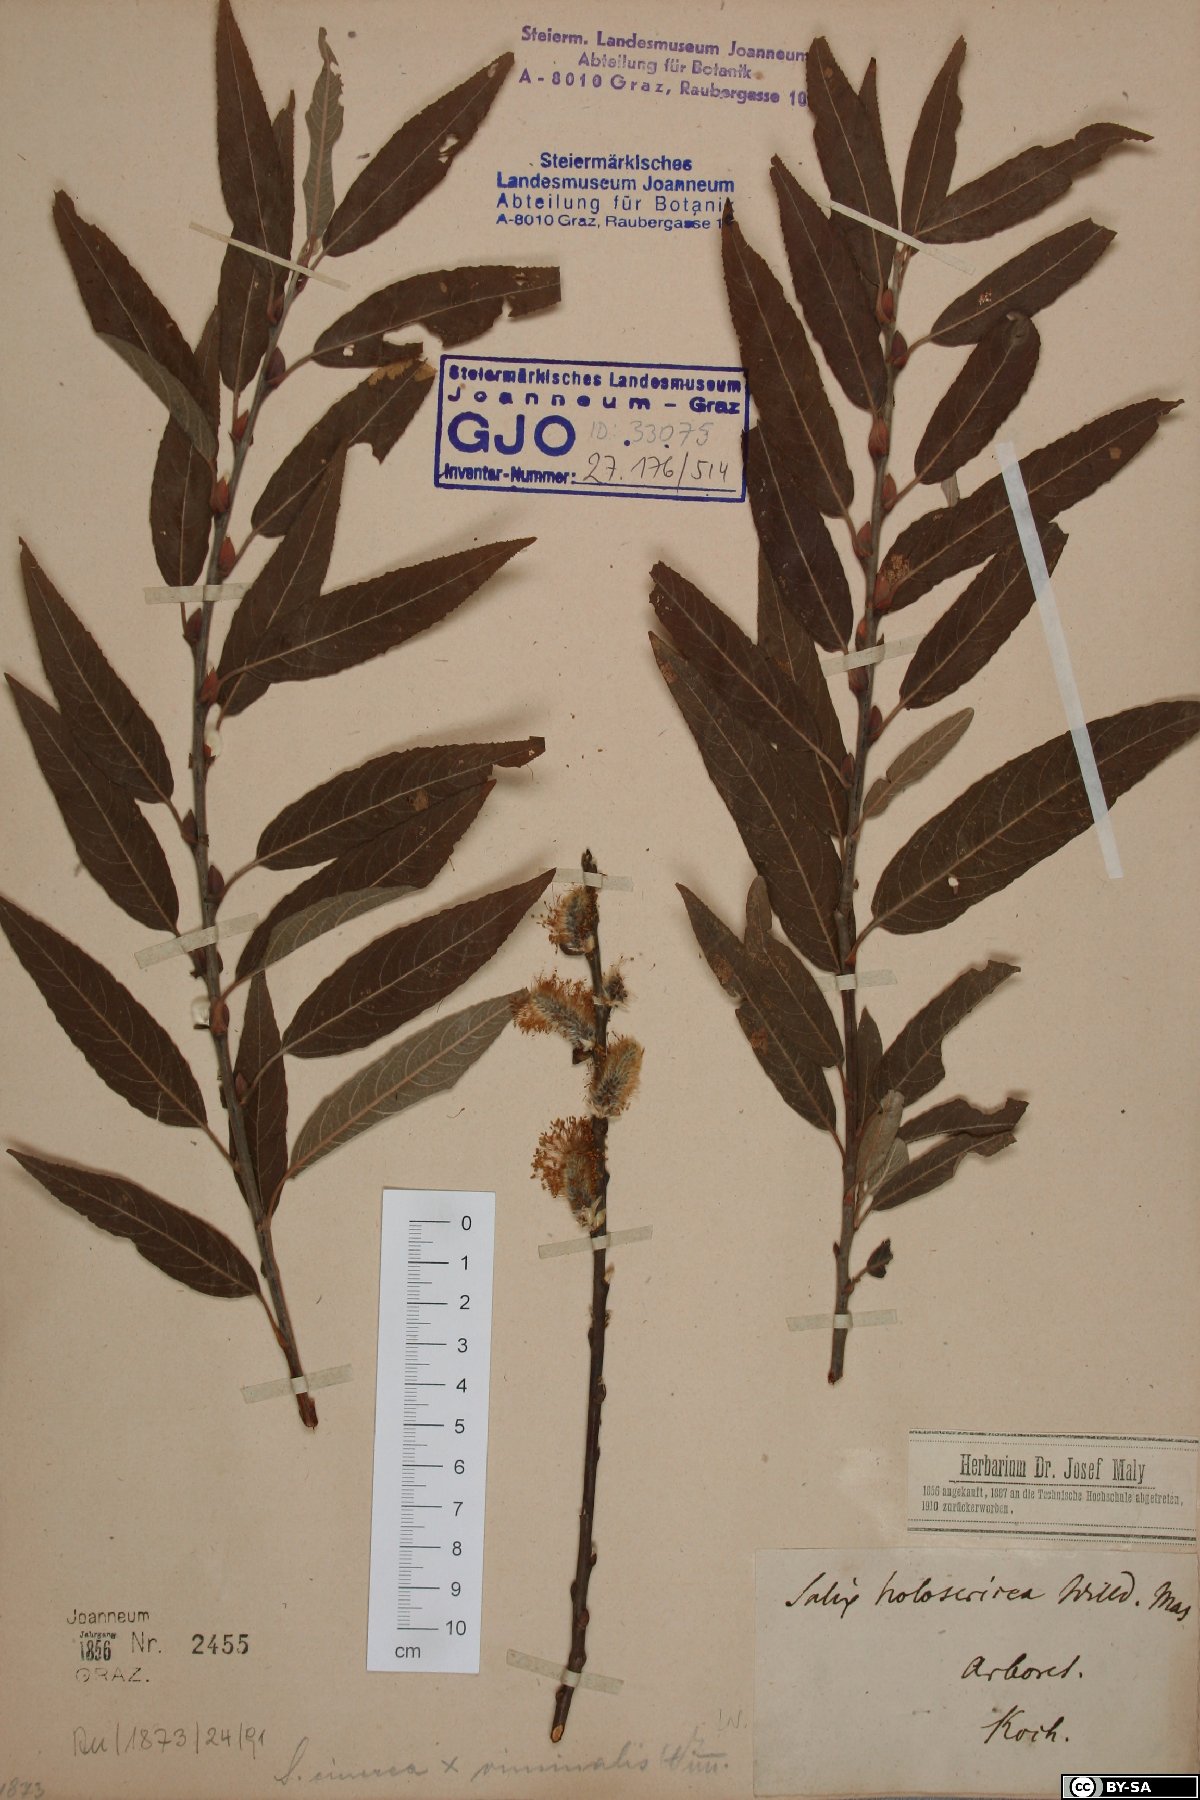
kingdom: Plantae
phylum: Tracheophyta
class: Magnoliopsida
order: Malpighiales
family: Salicaceae
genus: Salix
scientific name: Salix holosericea
